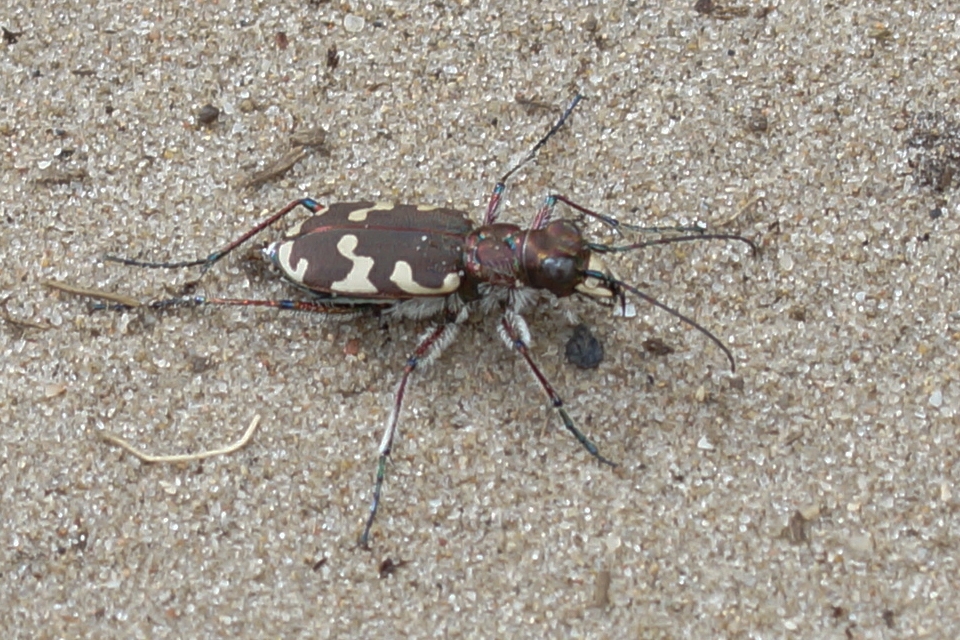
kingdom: Animalia
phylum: Arthropoda
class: Insecta
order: Coleoptera
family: Carabidae
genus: Cicindela
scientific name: Cicindela hybrida
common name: Brun sandspringer
